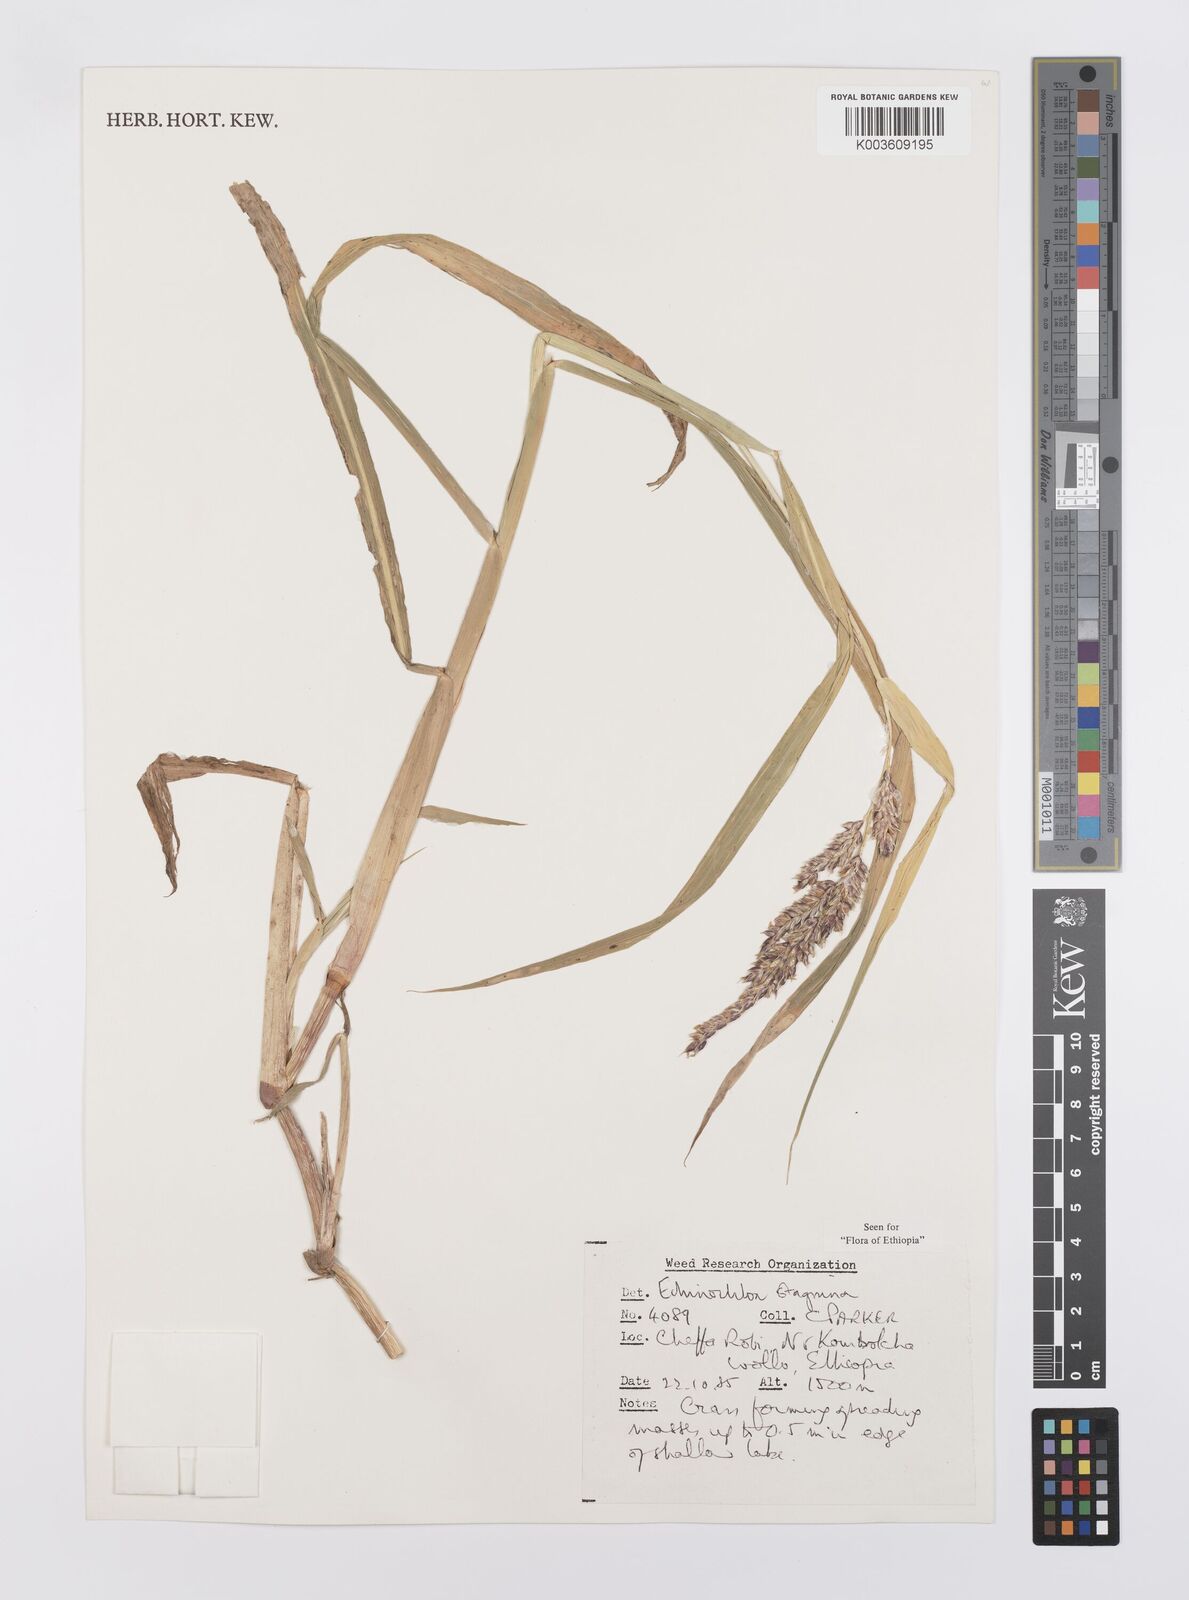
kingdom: Plantae
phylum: Tracheophyta
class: Liliopsida
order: Poales
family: Poaceae
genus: Echinochloa
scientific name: Echinochloa stagnina
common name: Burgu grass
